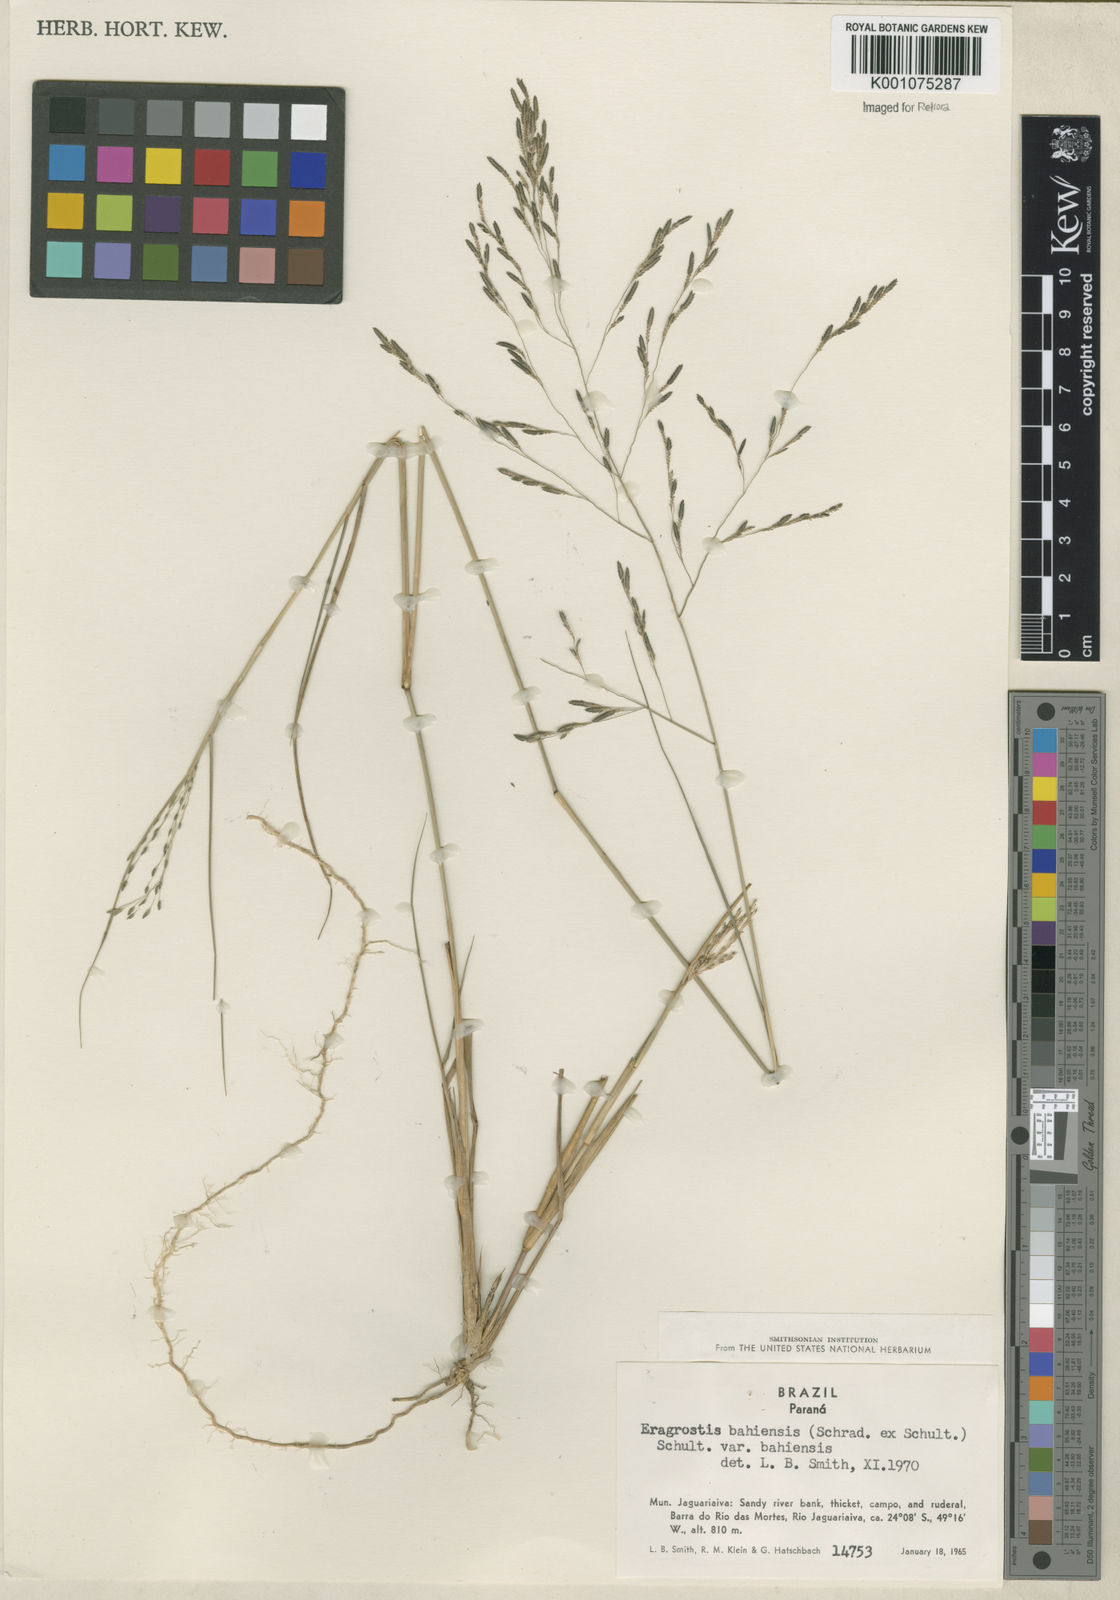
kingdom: Plantae
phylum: Tracheophyta
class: Liliopsida
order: Poales
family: Poaceae
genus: Eragrostis
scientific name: Eragrostis bahiensis
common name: Bahia lovegrass
